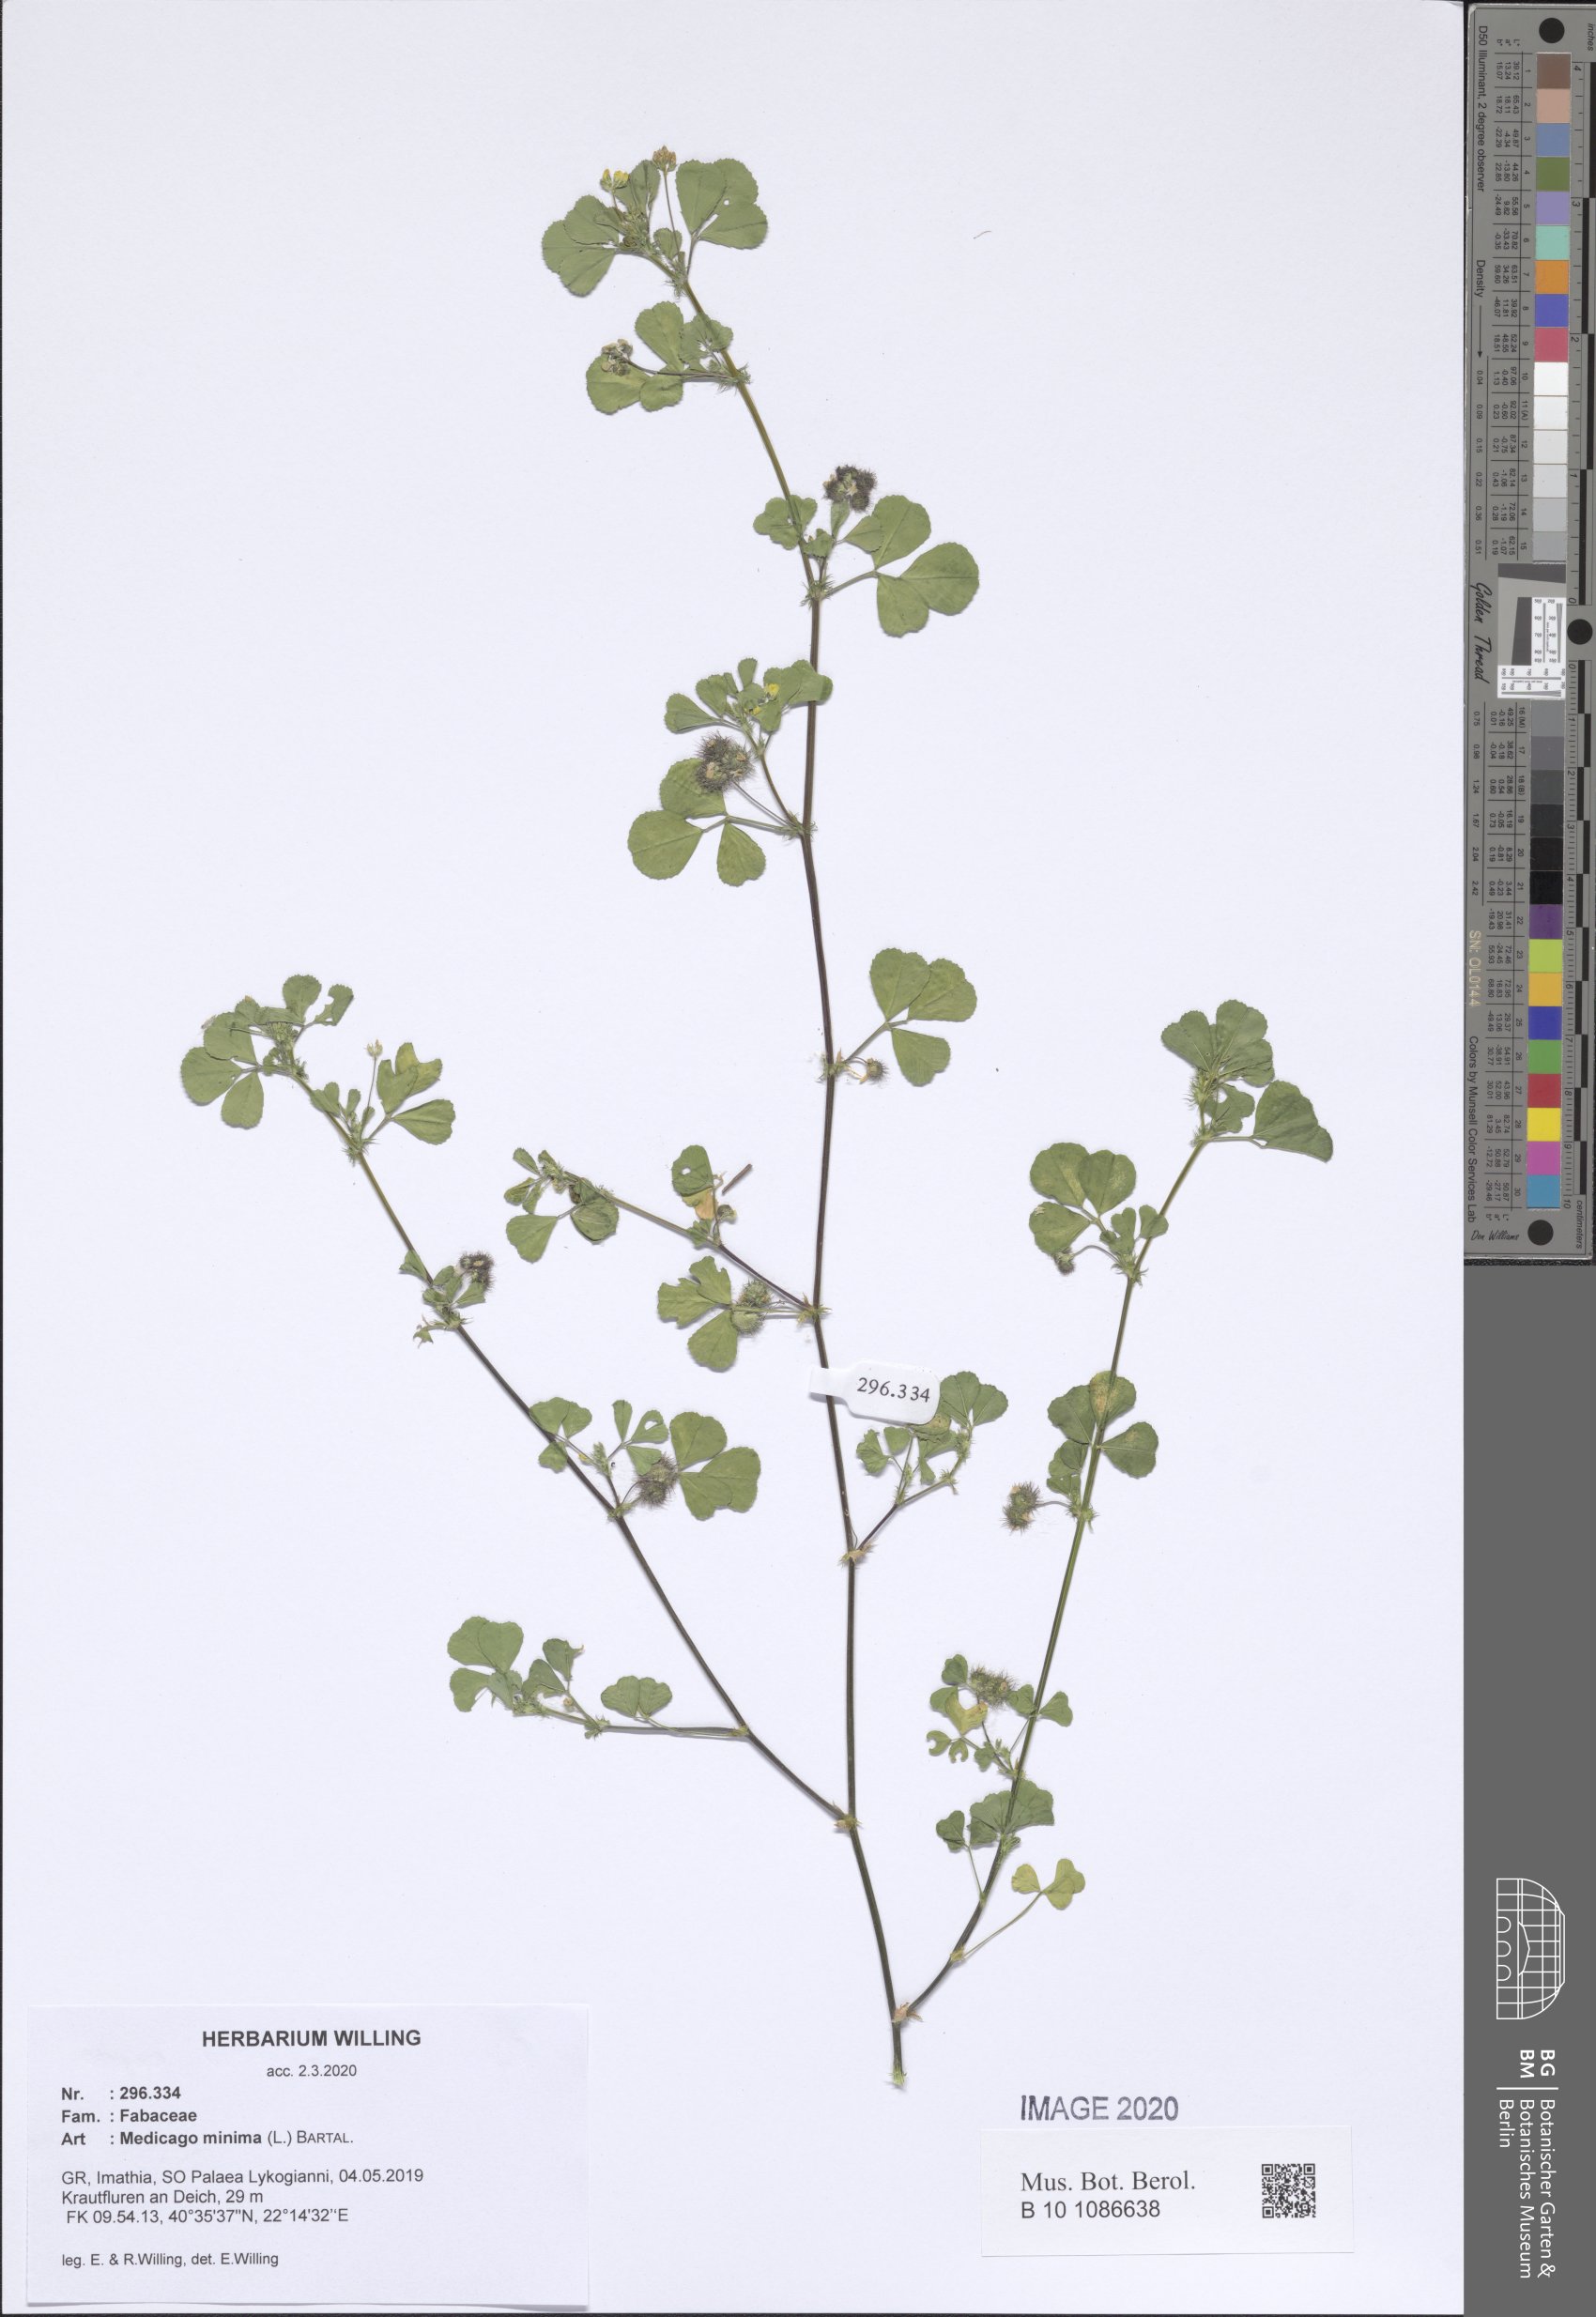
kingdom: Plantae
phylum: Tracheophyta
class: Magnoliopsida
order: Fabales
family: Fabaceae
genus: Medicago
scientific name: Medicago minima
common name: Little bur-clover
